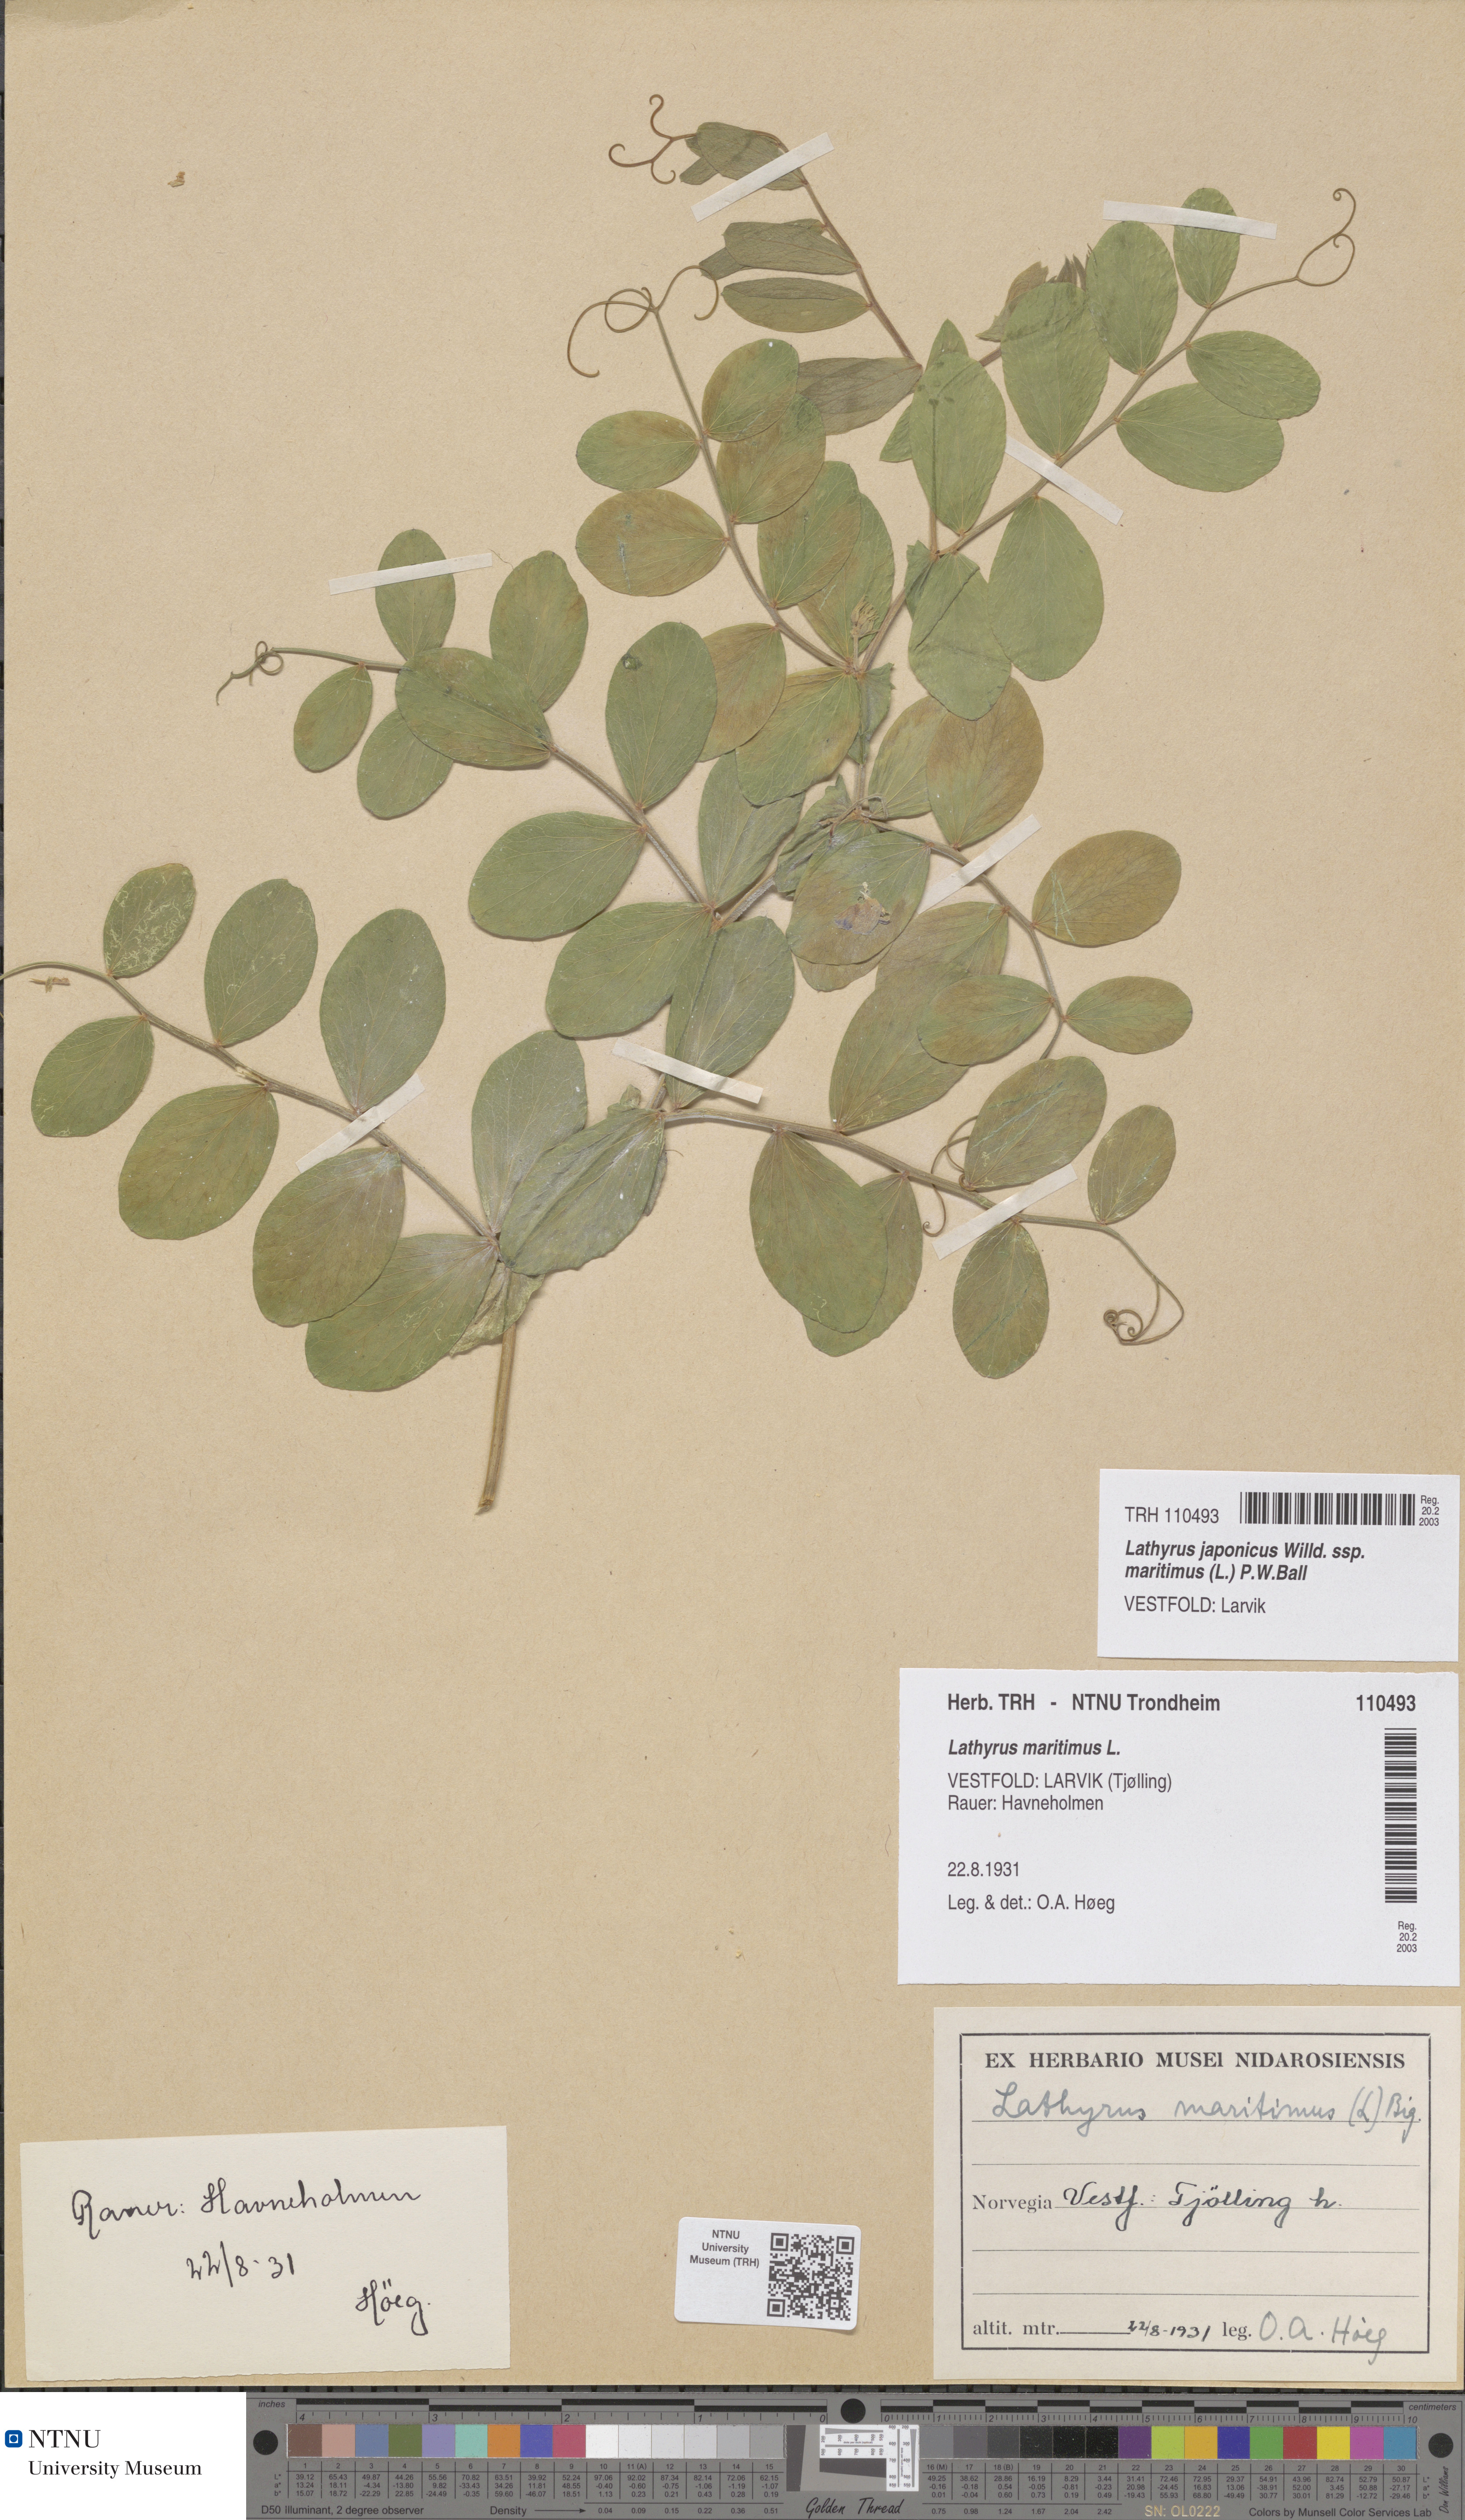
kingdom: Plantae
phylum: Tracheophyta
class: Magnoliopsida
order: Fabales
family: Fabaceae
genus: Lathyrus
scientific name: Lathyrus japonicus
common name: Sea pea
